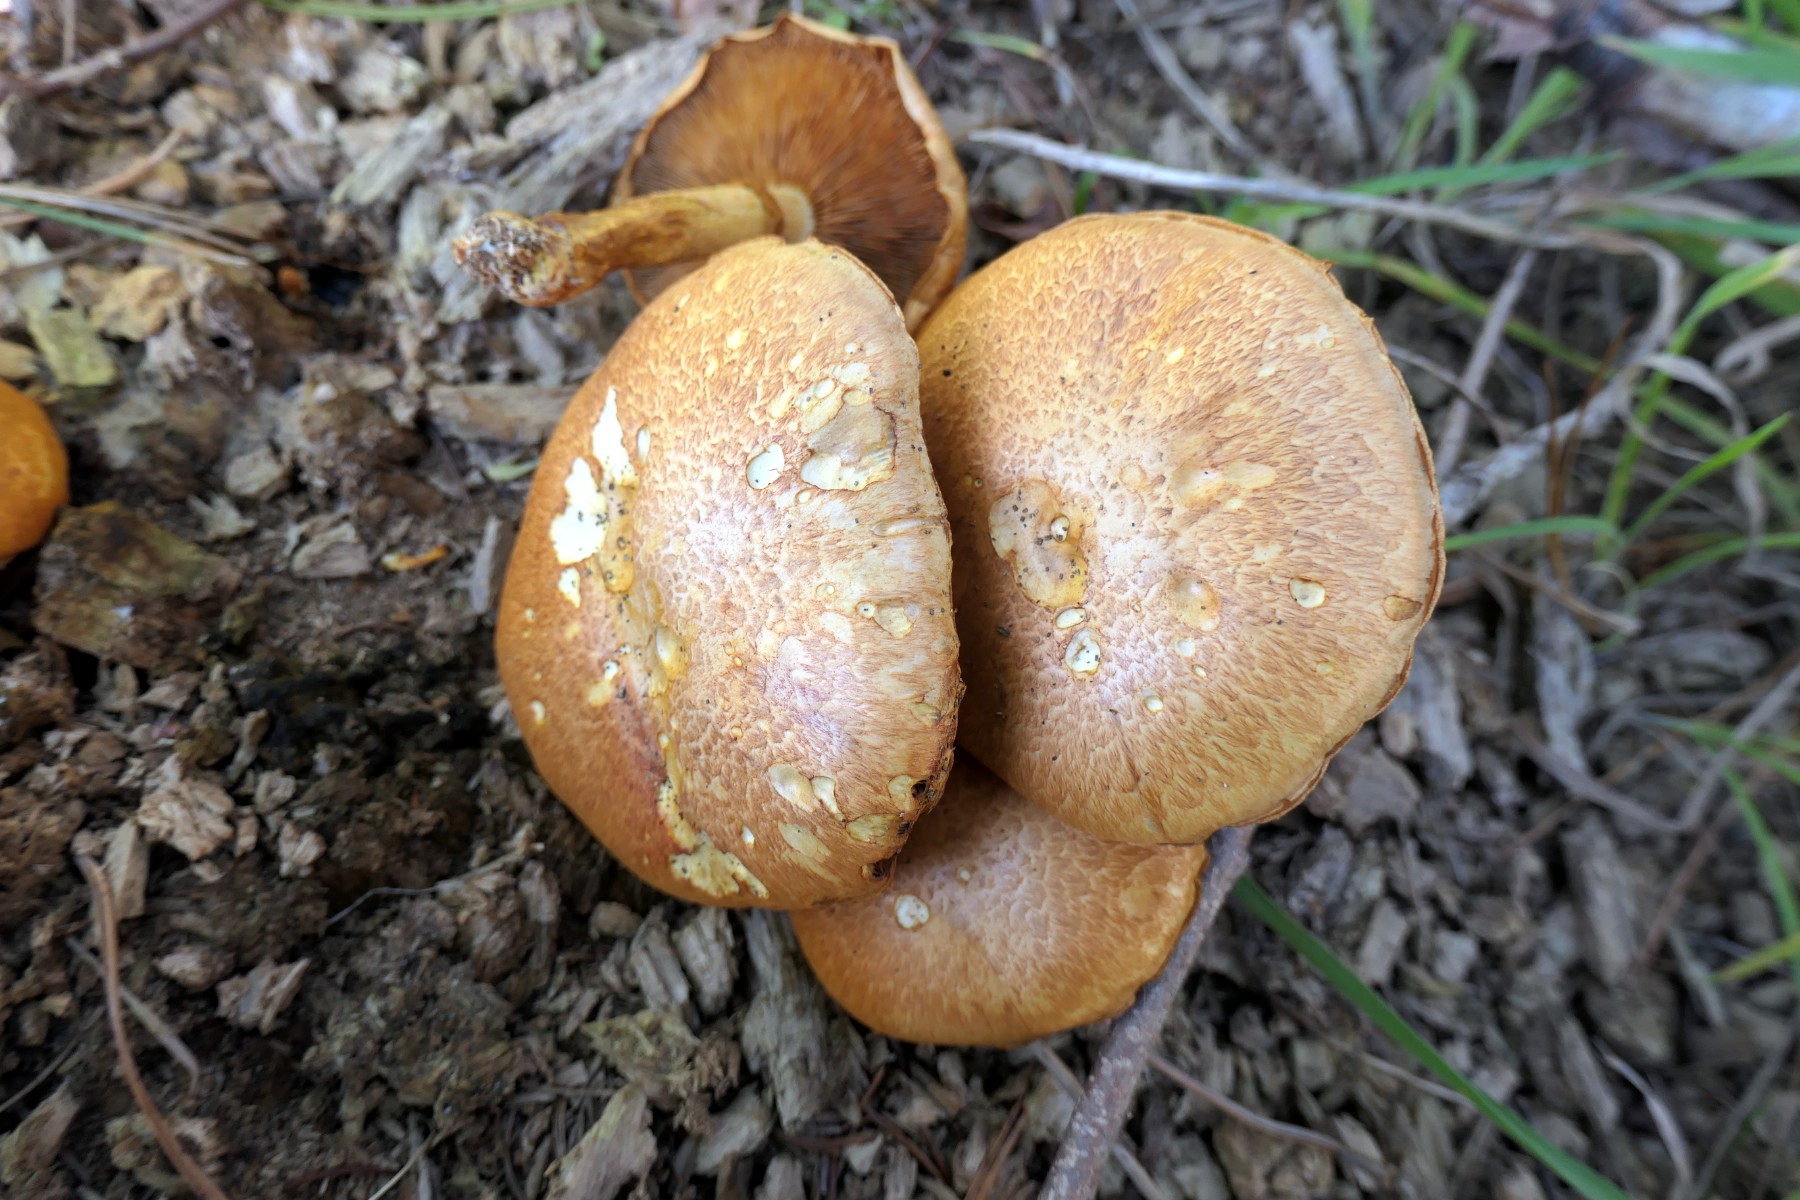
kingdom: Fungi
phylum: Basidiomycota
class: Agaricomycetes
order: Agaricales
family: Hymenogastraceae
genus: Gymnopilus
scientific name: Gymnopilus spectabilis
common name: fibret flammehat
